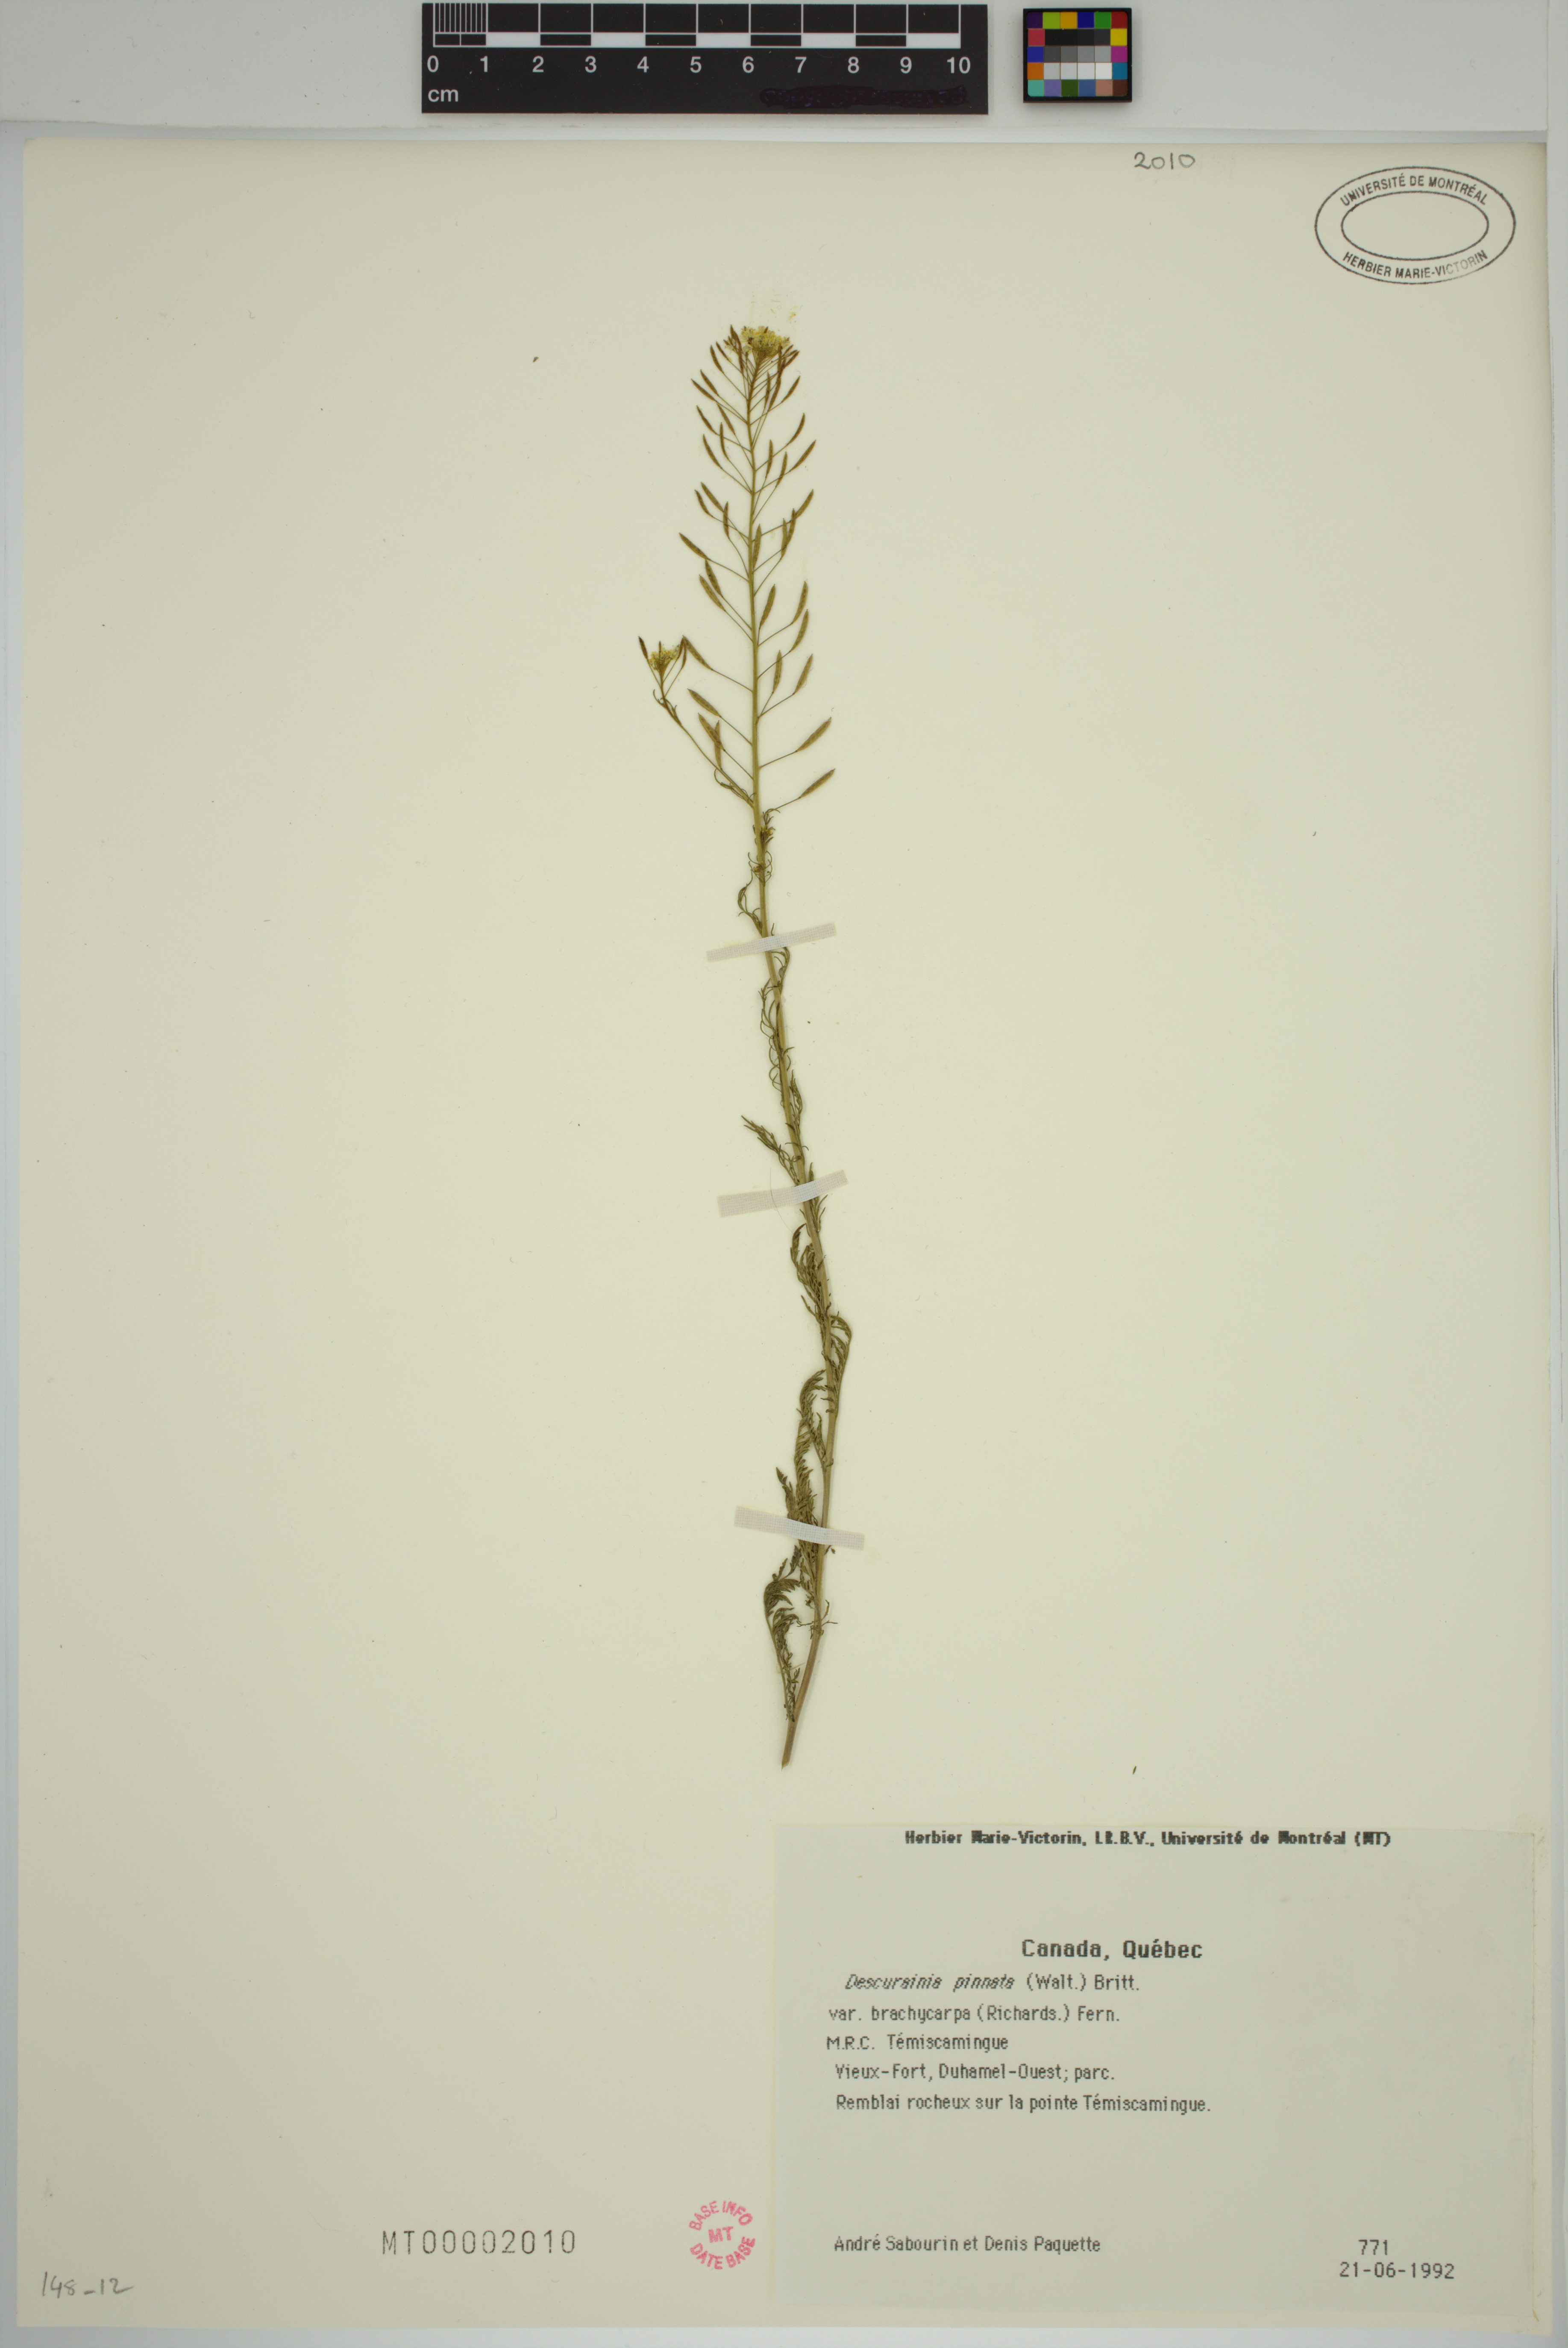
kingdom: Plantae
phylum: Tracheophyta
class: Magnoliopsida
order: Brassicales
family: Brassicaceae
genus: Descurainia
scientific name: Descurainia pinnata
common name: Western tansy mustard
